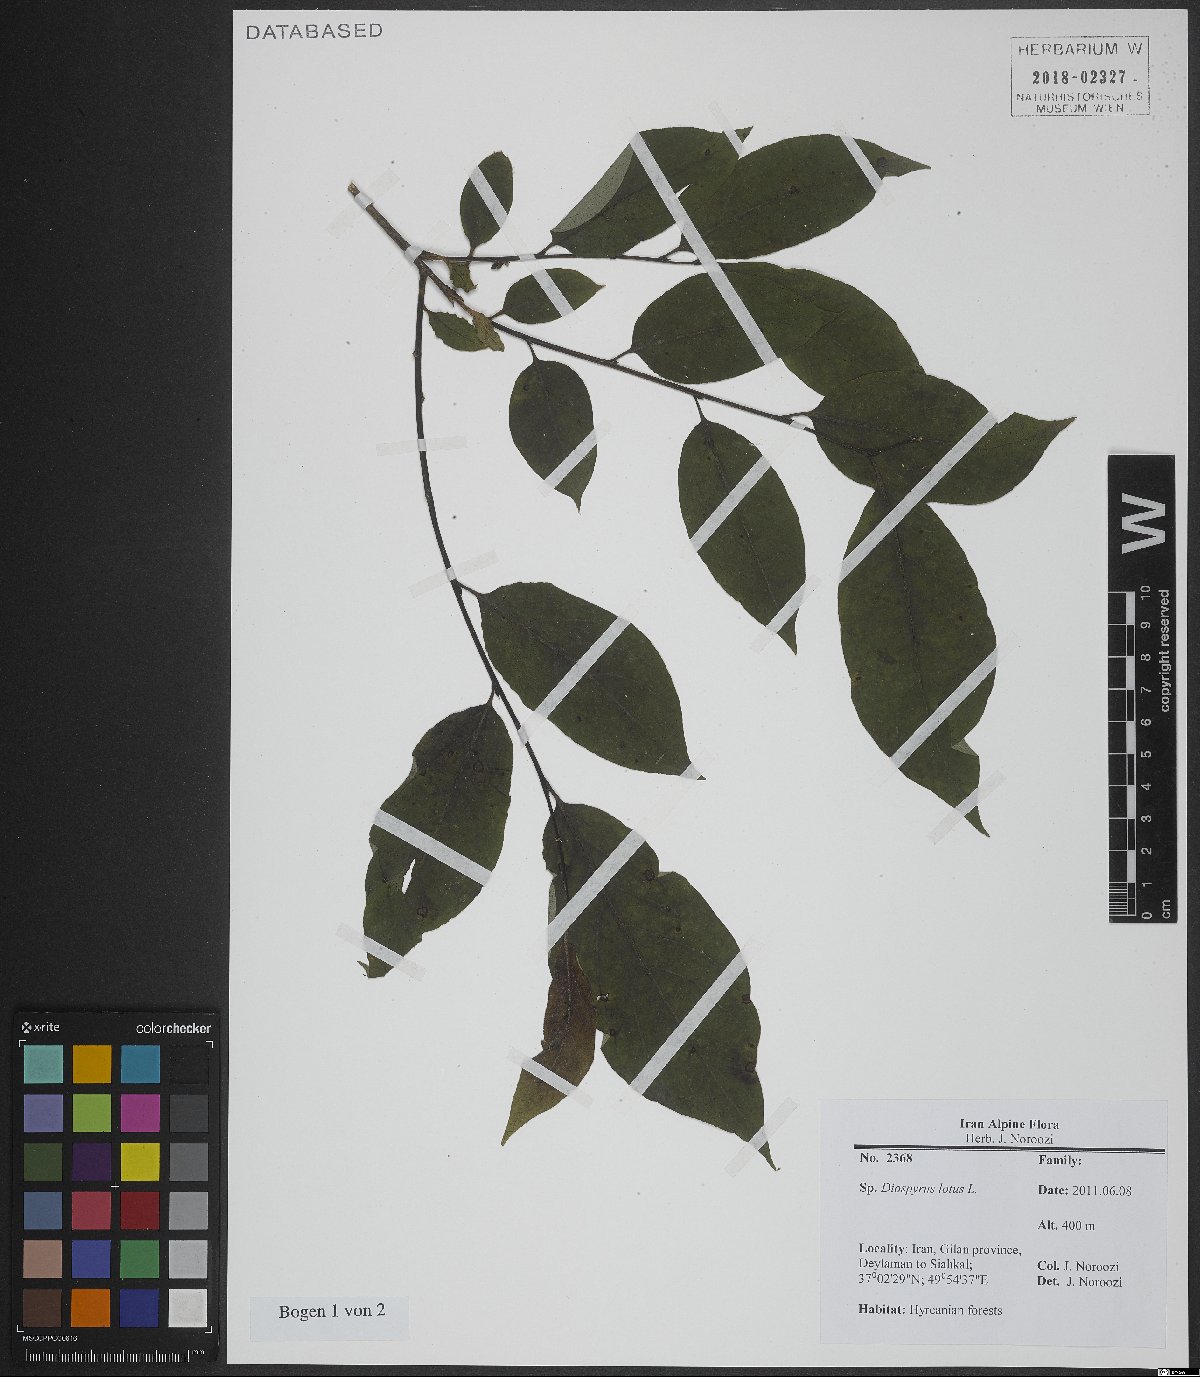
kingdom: Plantae
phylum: Tracheophyta
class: Magnoliopsida
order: Ericales
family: Ebenaceae
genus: Diospyros
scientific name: Diospyros lotus
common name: Date-plum
